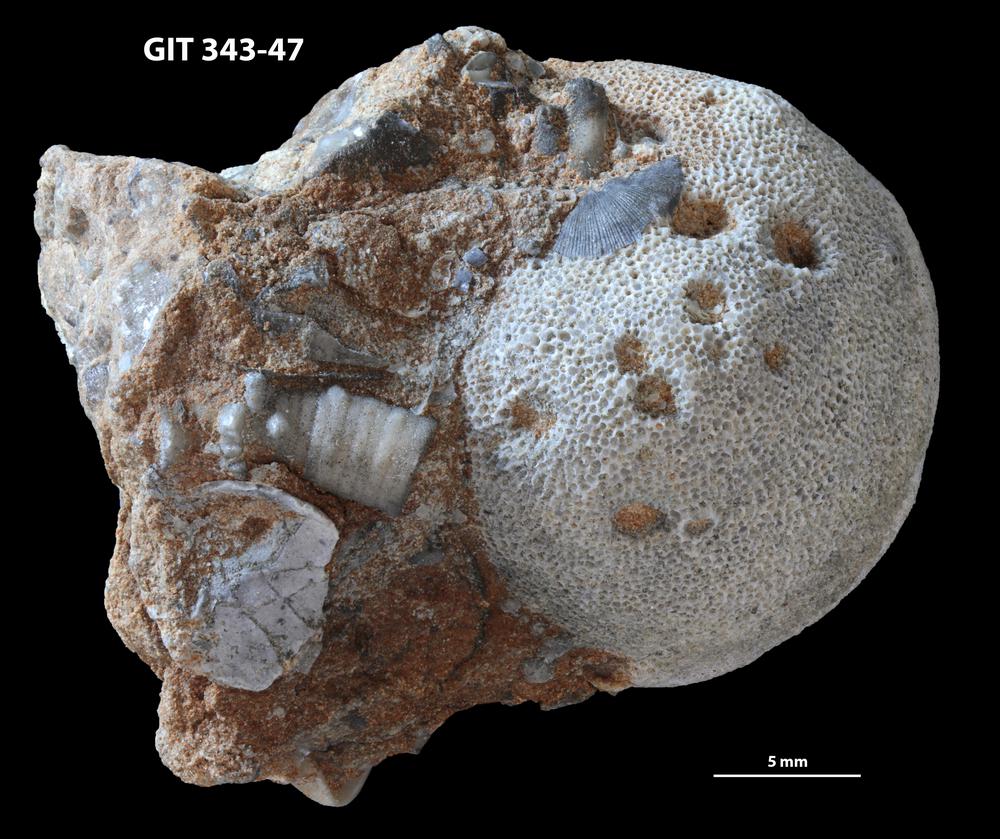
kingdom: Animalia
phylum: Bryozoa
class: Stenolaemata
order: Trepostomatida
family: Monticuliporidae
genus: Mesotrypa
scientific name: Mesotrypa orientalis
